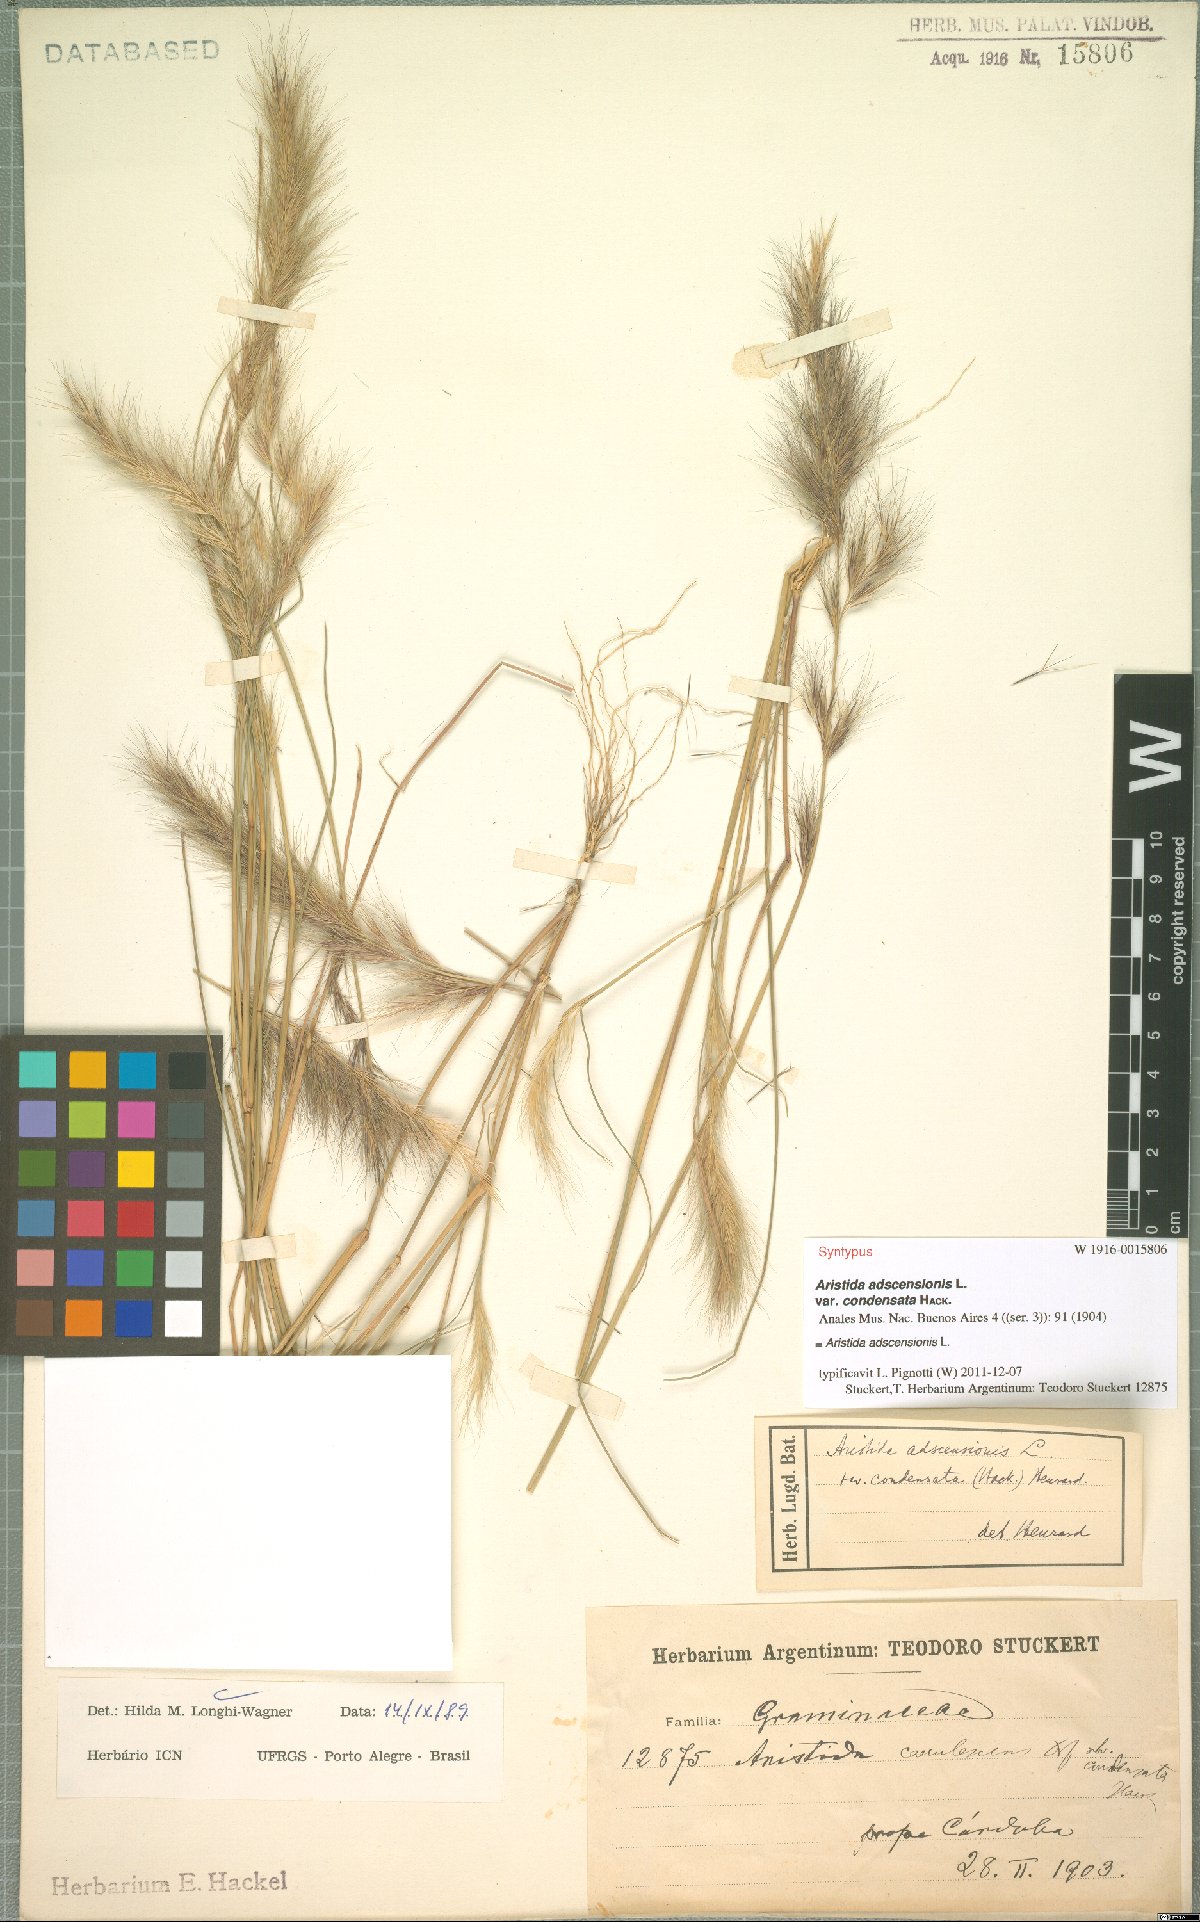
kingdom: Plantae
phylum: Tracheophyta
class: Liliopsida
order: Poales
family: Poaceae
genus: Aristida
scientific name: Aristida adscensionis
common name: Sixweeks threeawn
